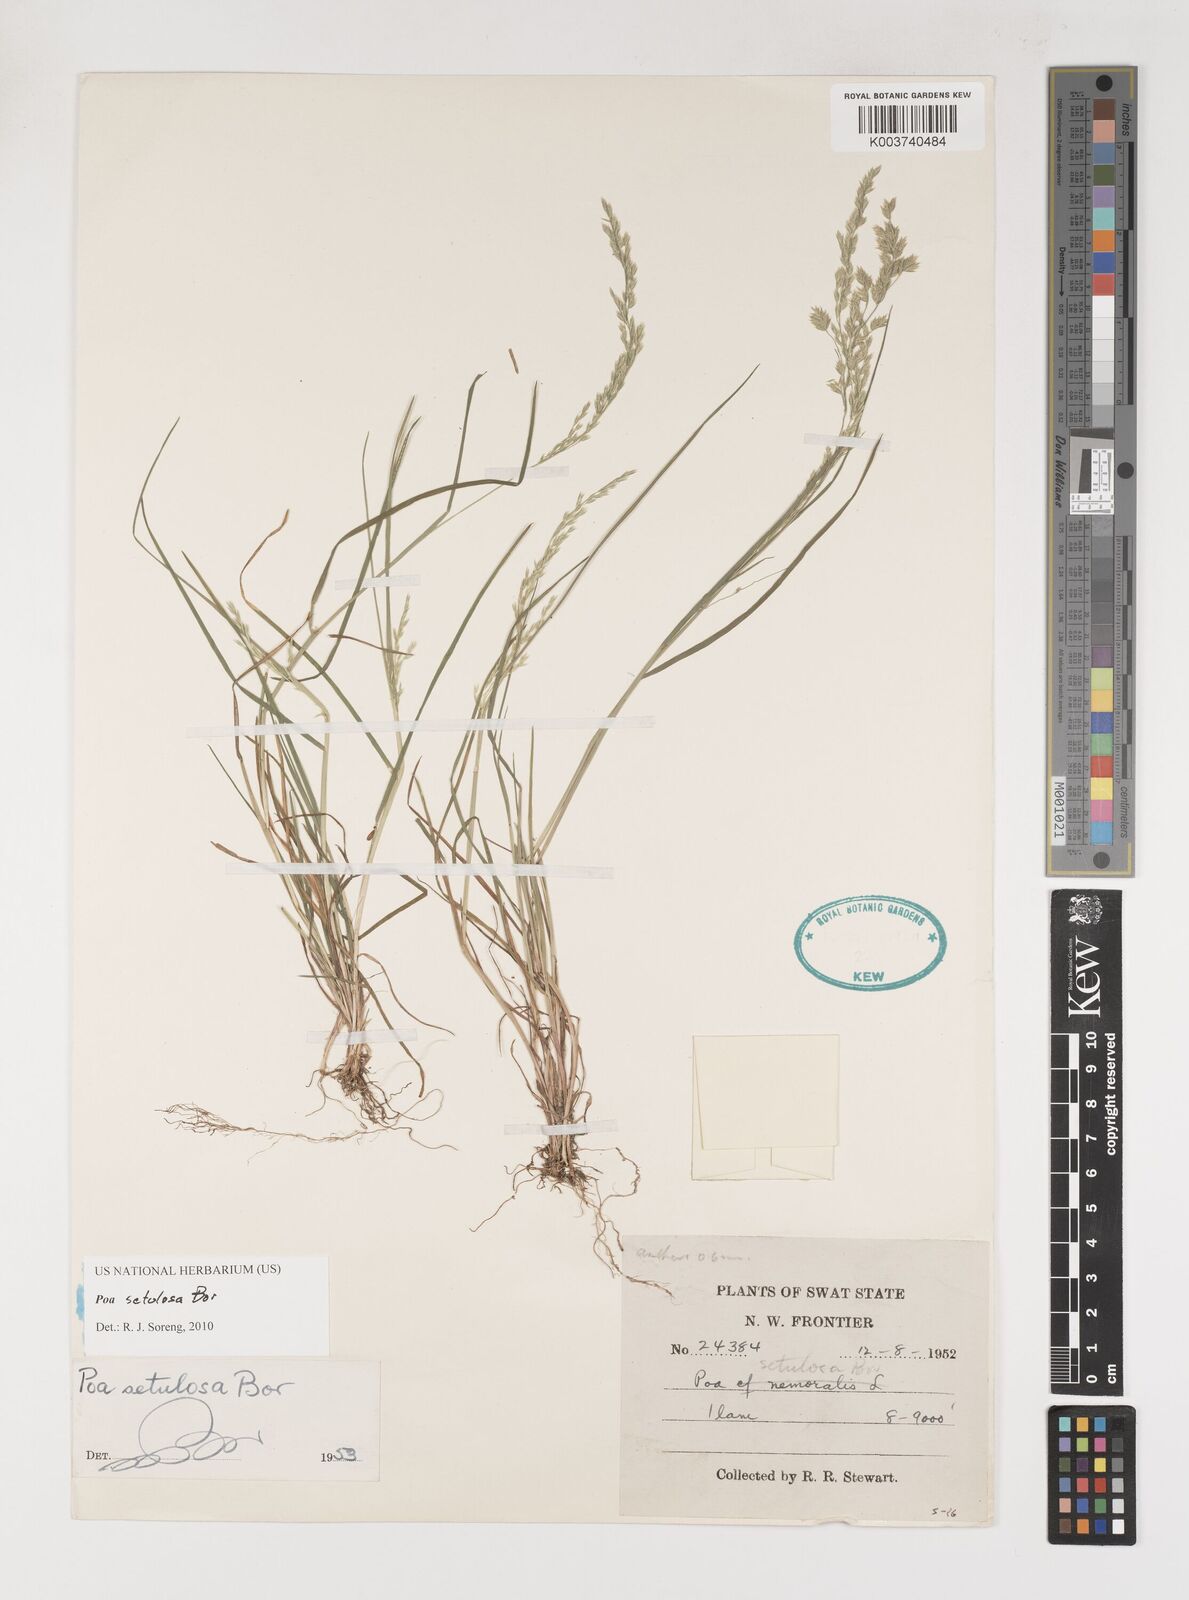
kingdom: Plantae
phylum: Tracheophyta
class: Liliopsida
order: Poales
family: Poaceae
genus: Poa
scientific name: Poa setulosa
